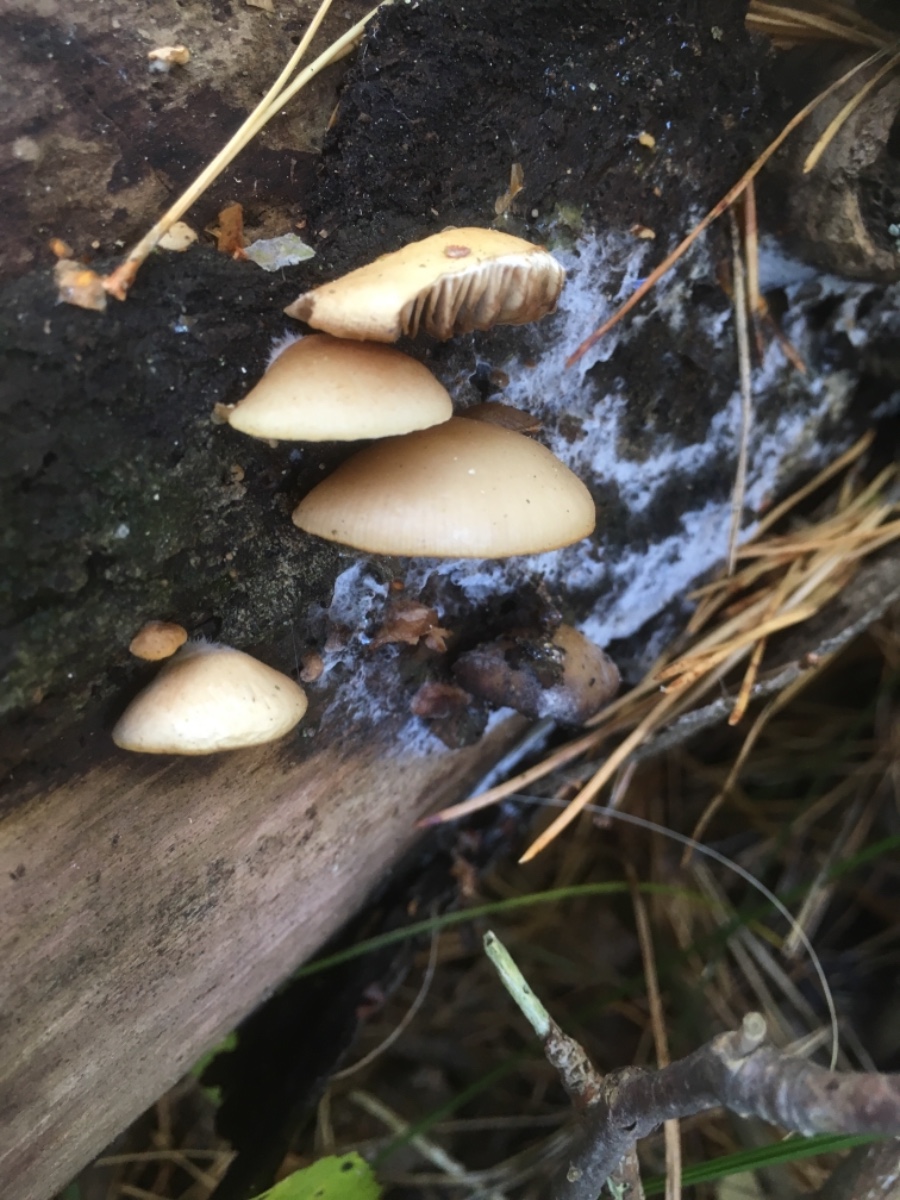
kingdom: Fungi
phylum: Basidiomycota
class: Agaricomycetes
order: Agaricales
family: Crepidotaceae
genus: Crepidotus
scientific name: Crepidotus mollis
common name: blød muslingesvamp
